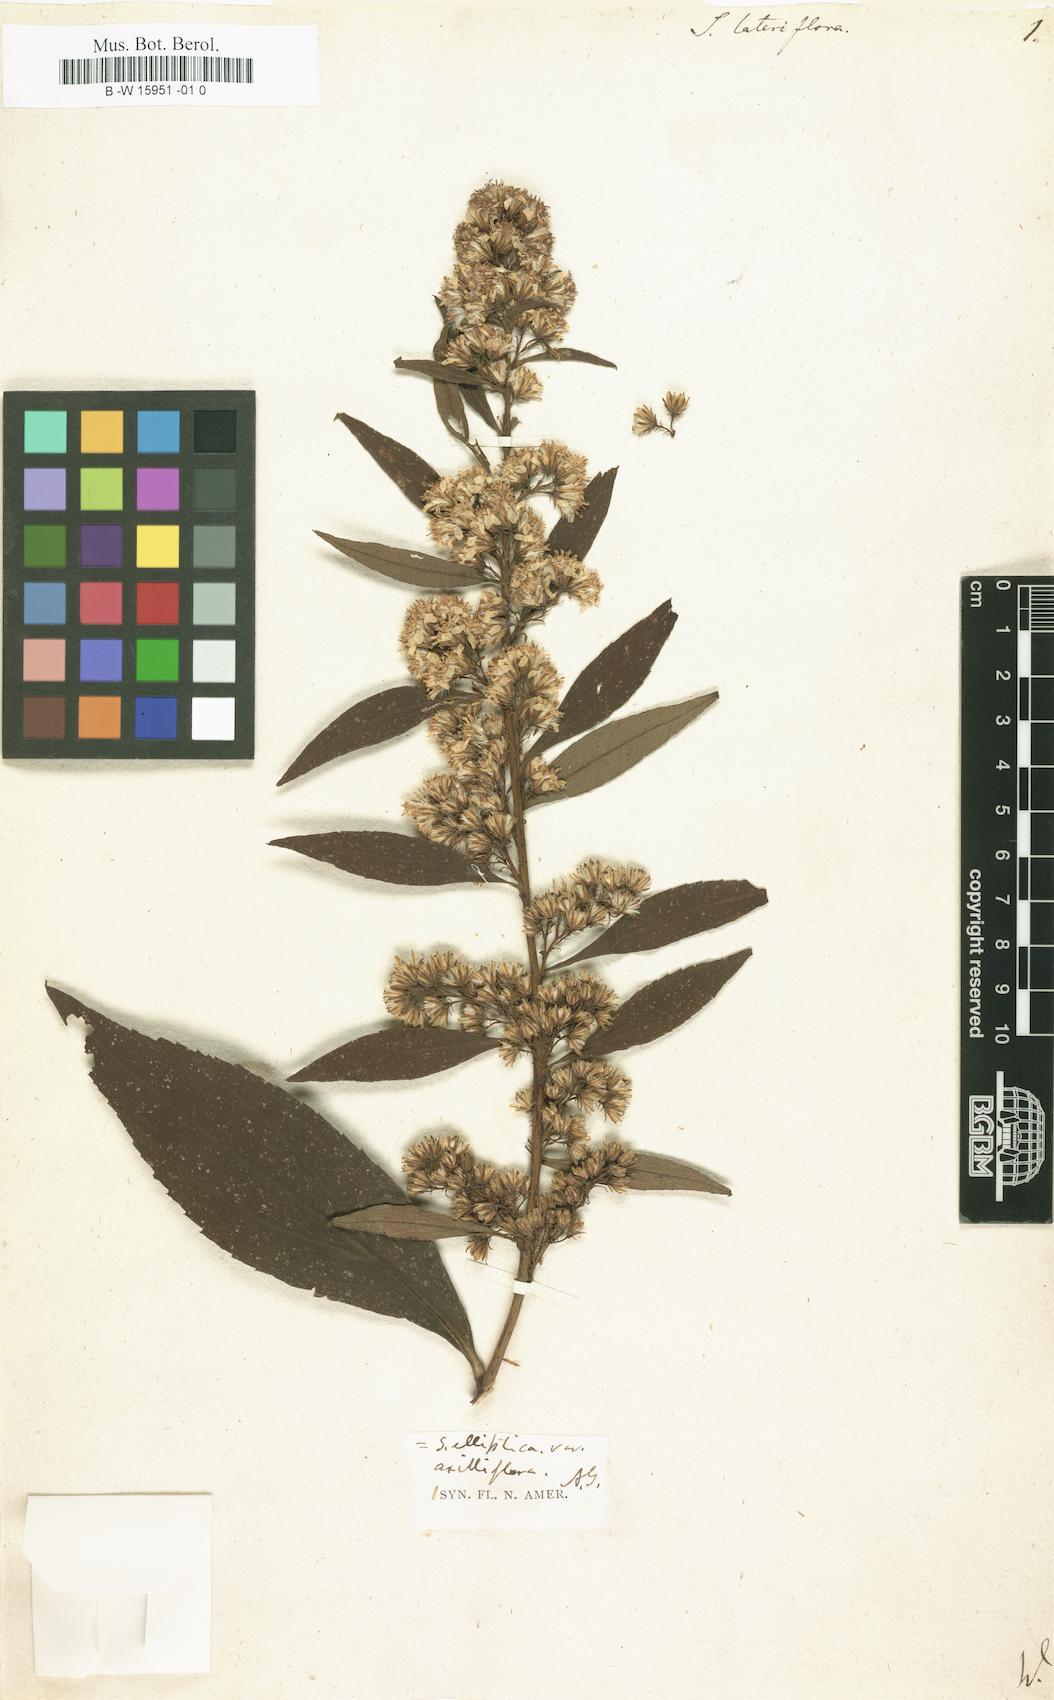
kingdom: Plantae
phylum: Tracheophyta
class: Magnoliopsida
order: Asterales
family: Asteraceae
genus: Solidago
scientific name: Solidago caesia
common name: Woodland goldenrod
